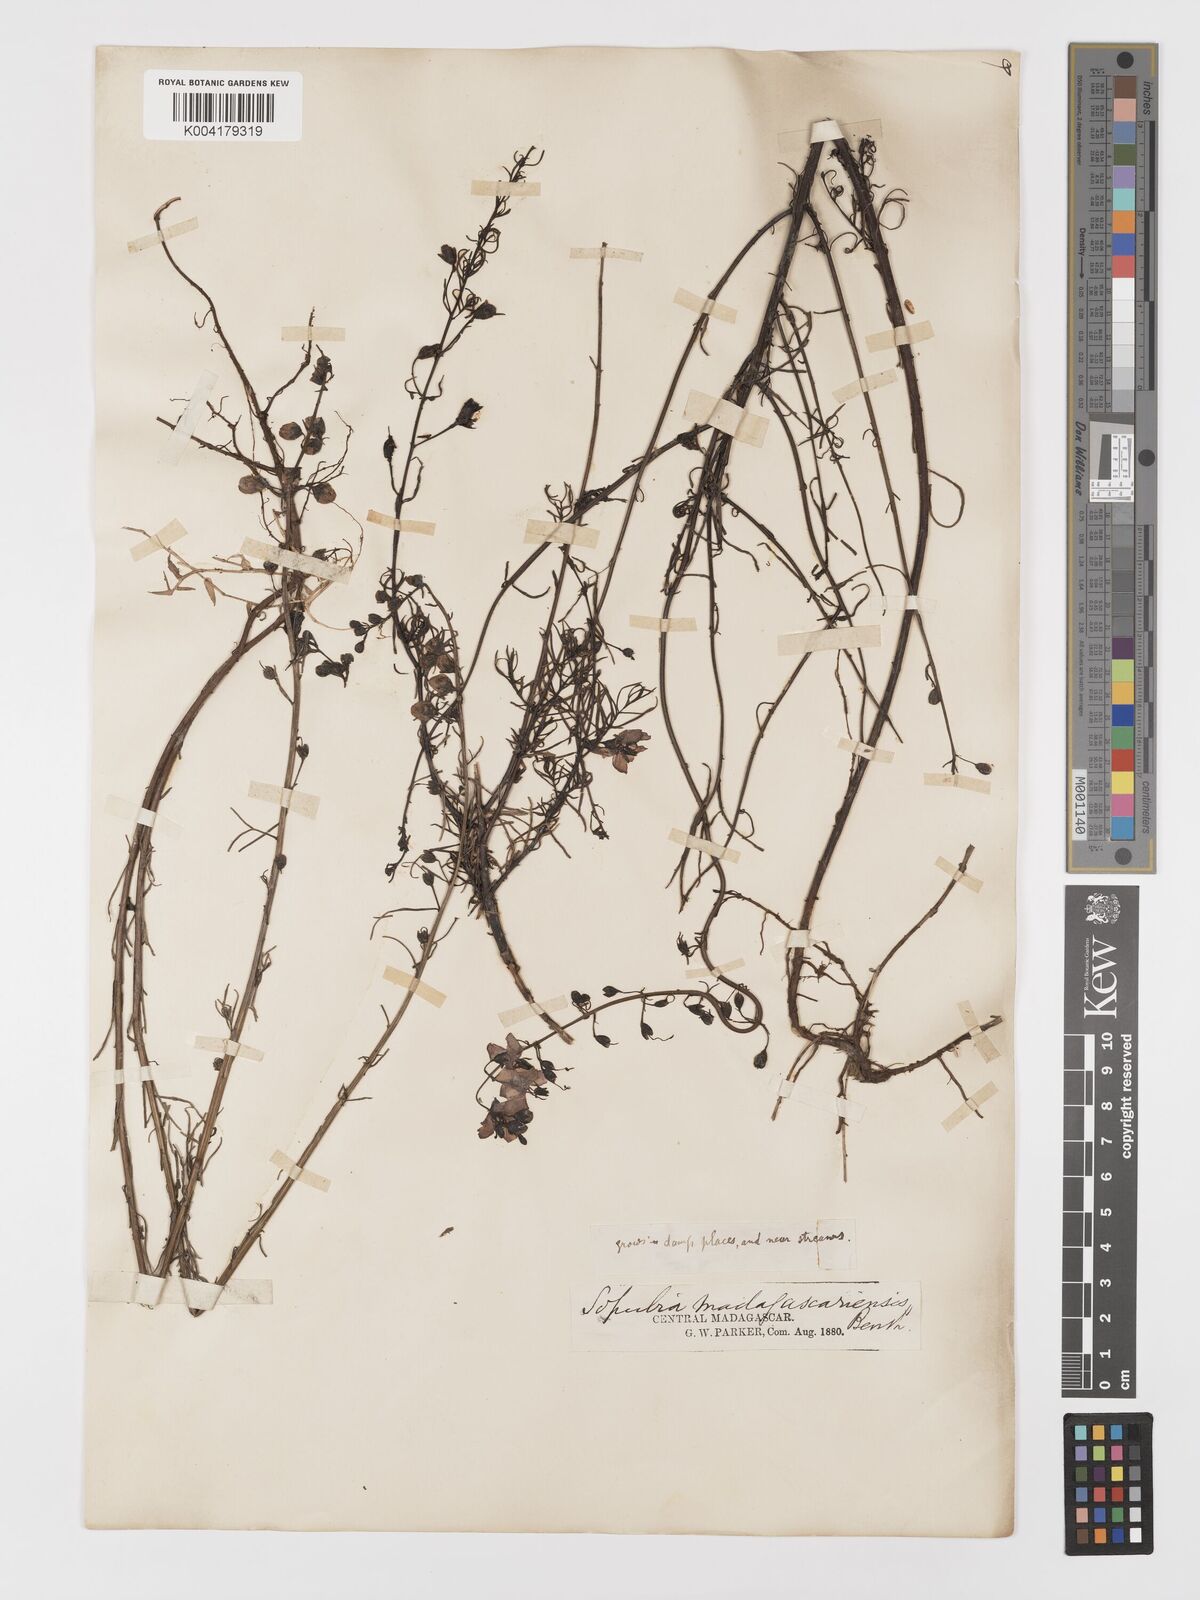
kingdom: Plantae
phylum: Tracheophyta
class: Magnoliopsida
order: Lamiales
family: Orobanchaceae
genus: Sopubia
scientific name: Sopubia trifida
